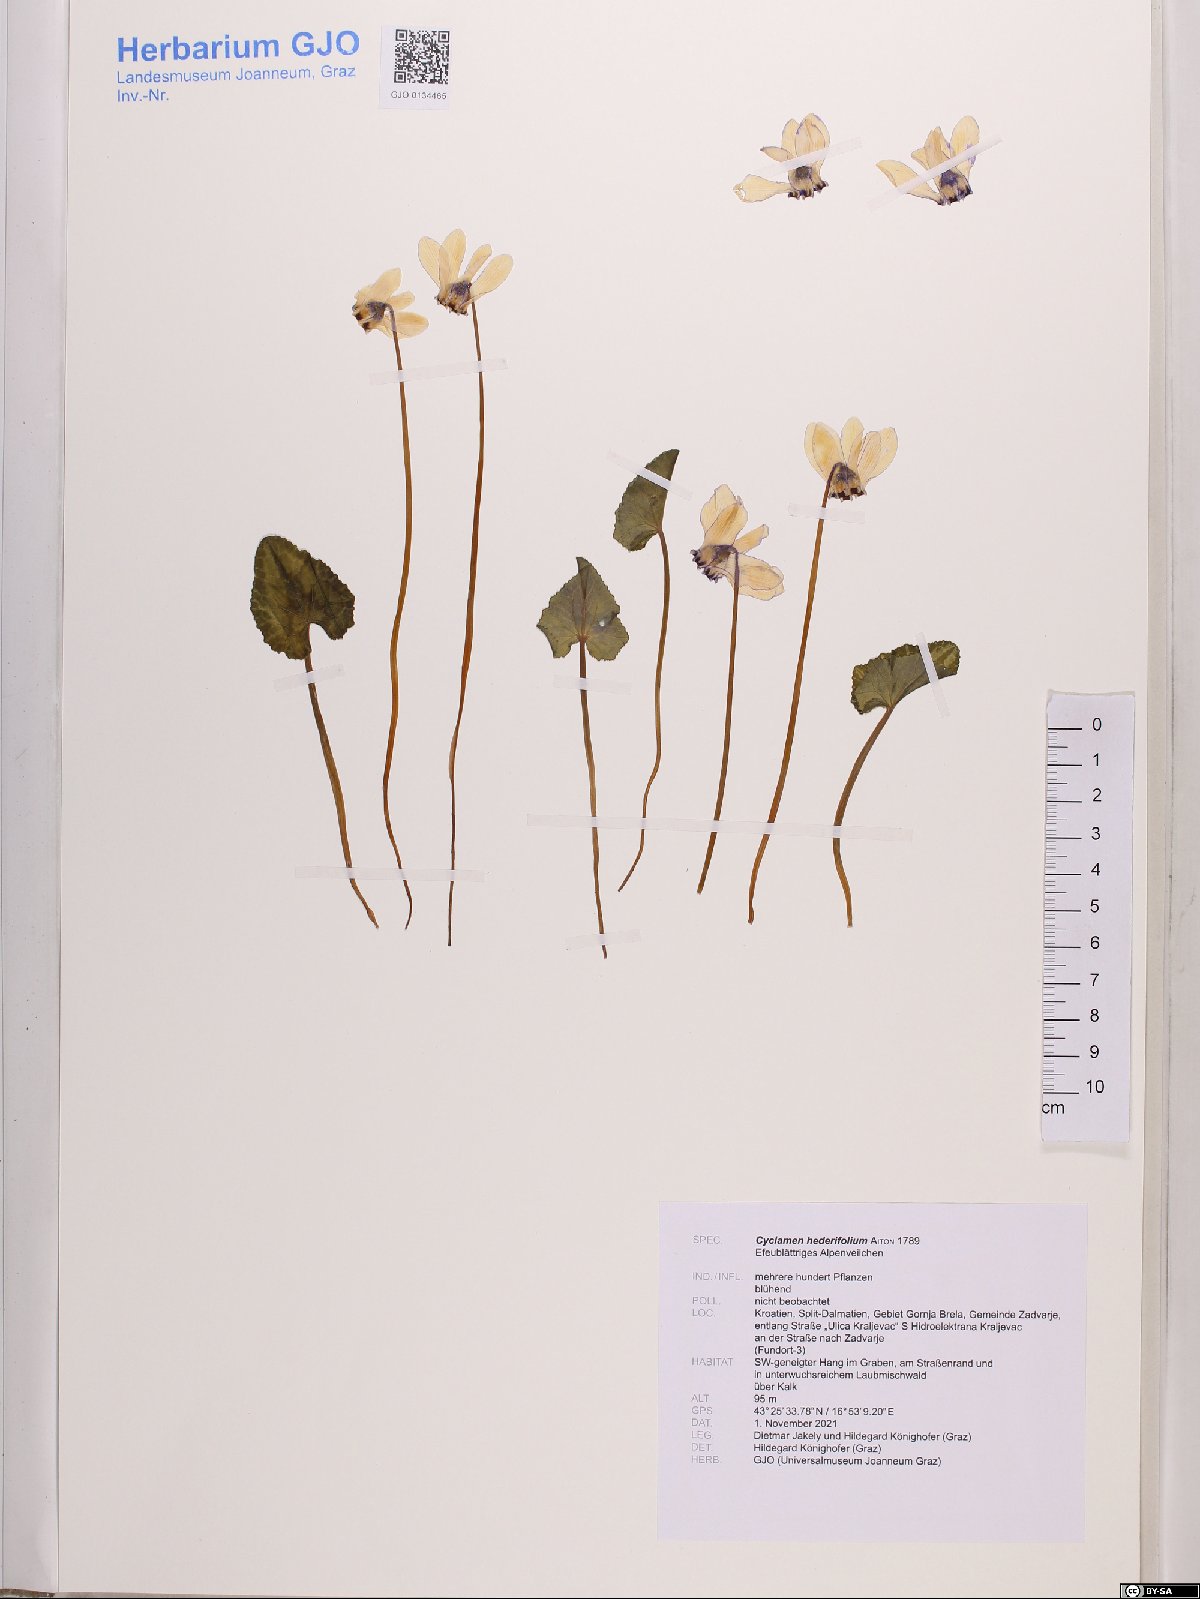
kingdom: Plantae
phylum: Tracheophyta
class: Magnoliopsida
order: Ericales
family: Primulaceae
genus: Cyclamen
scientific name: Cyclamen hederifolium
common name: Sowbread
